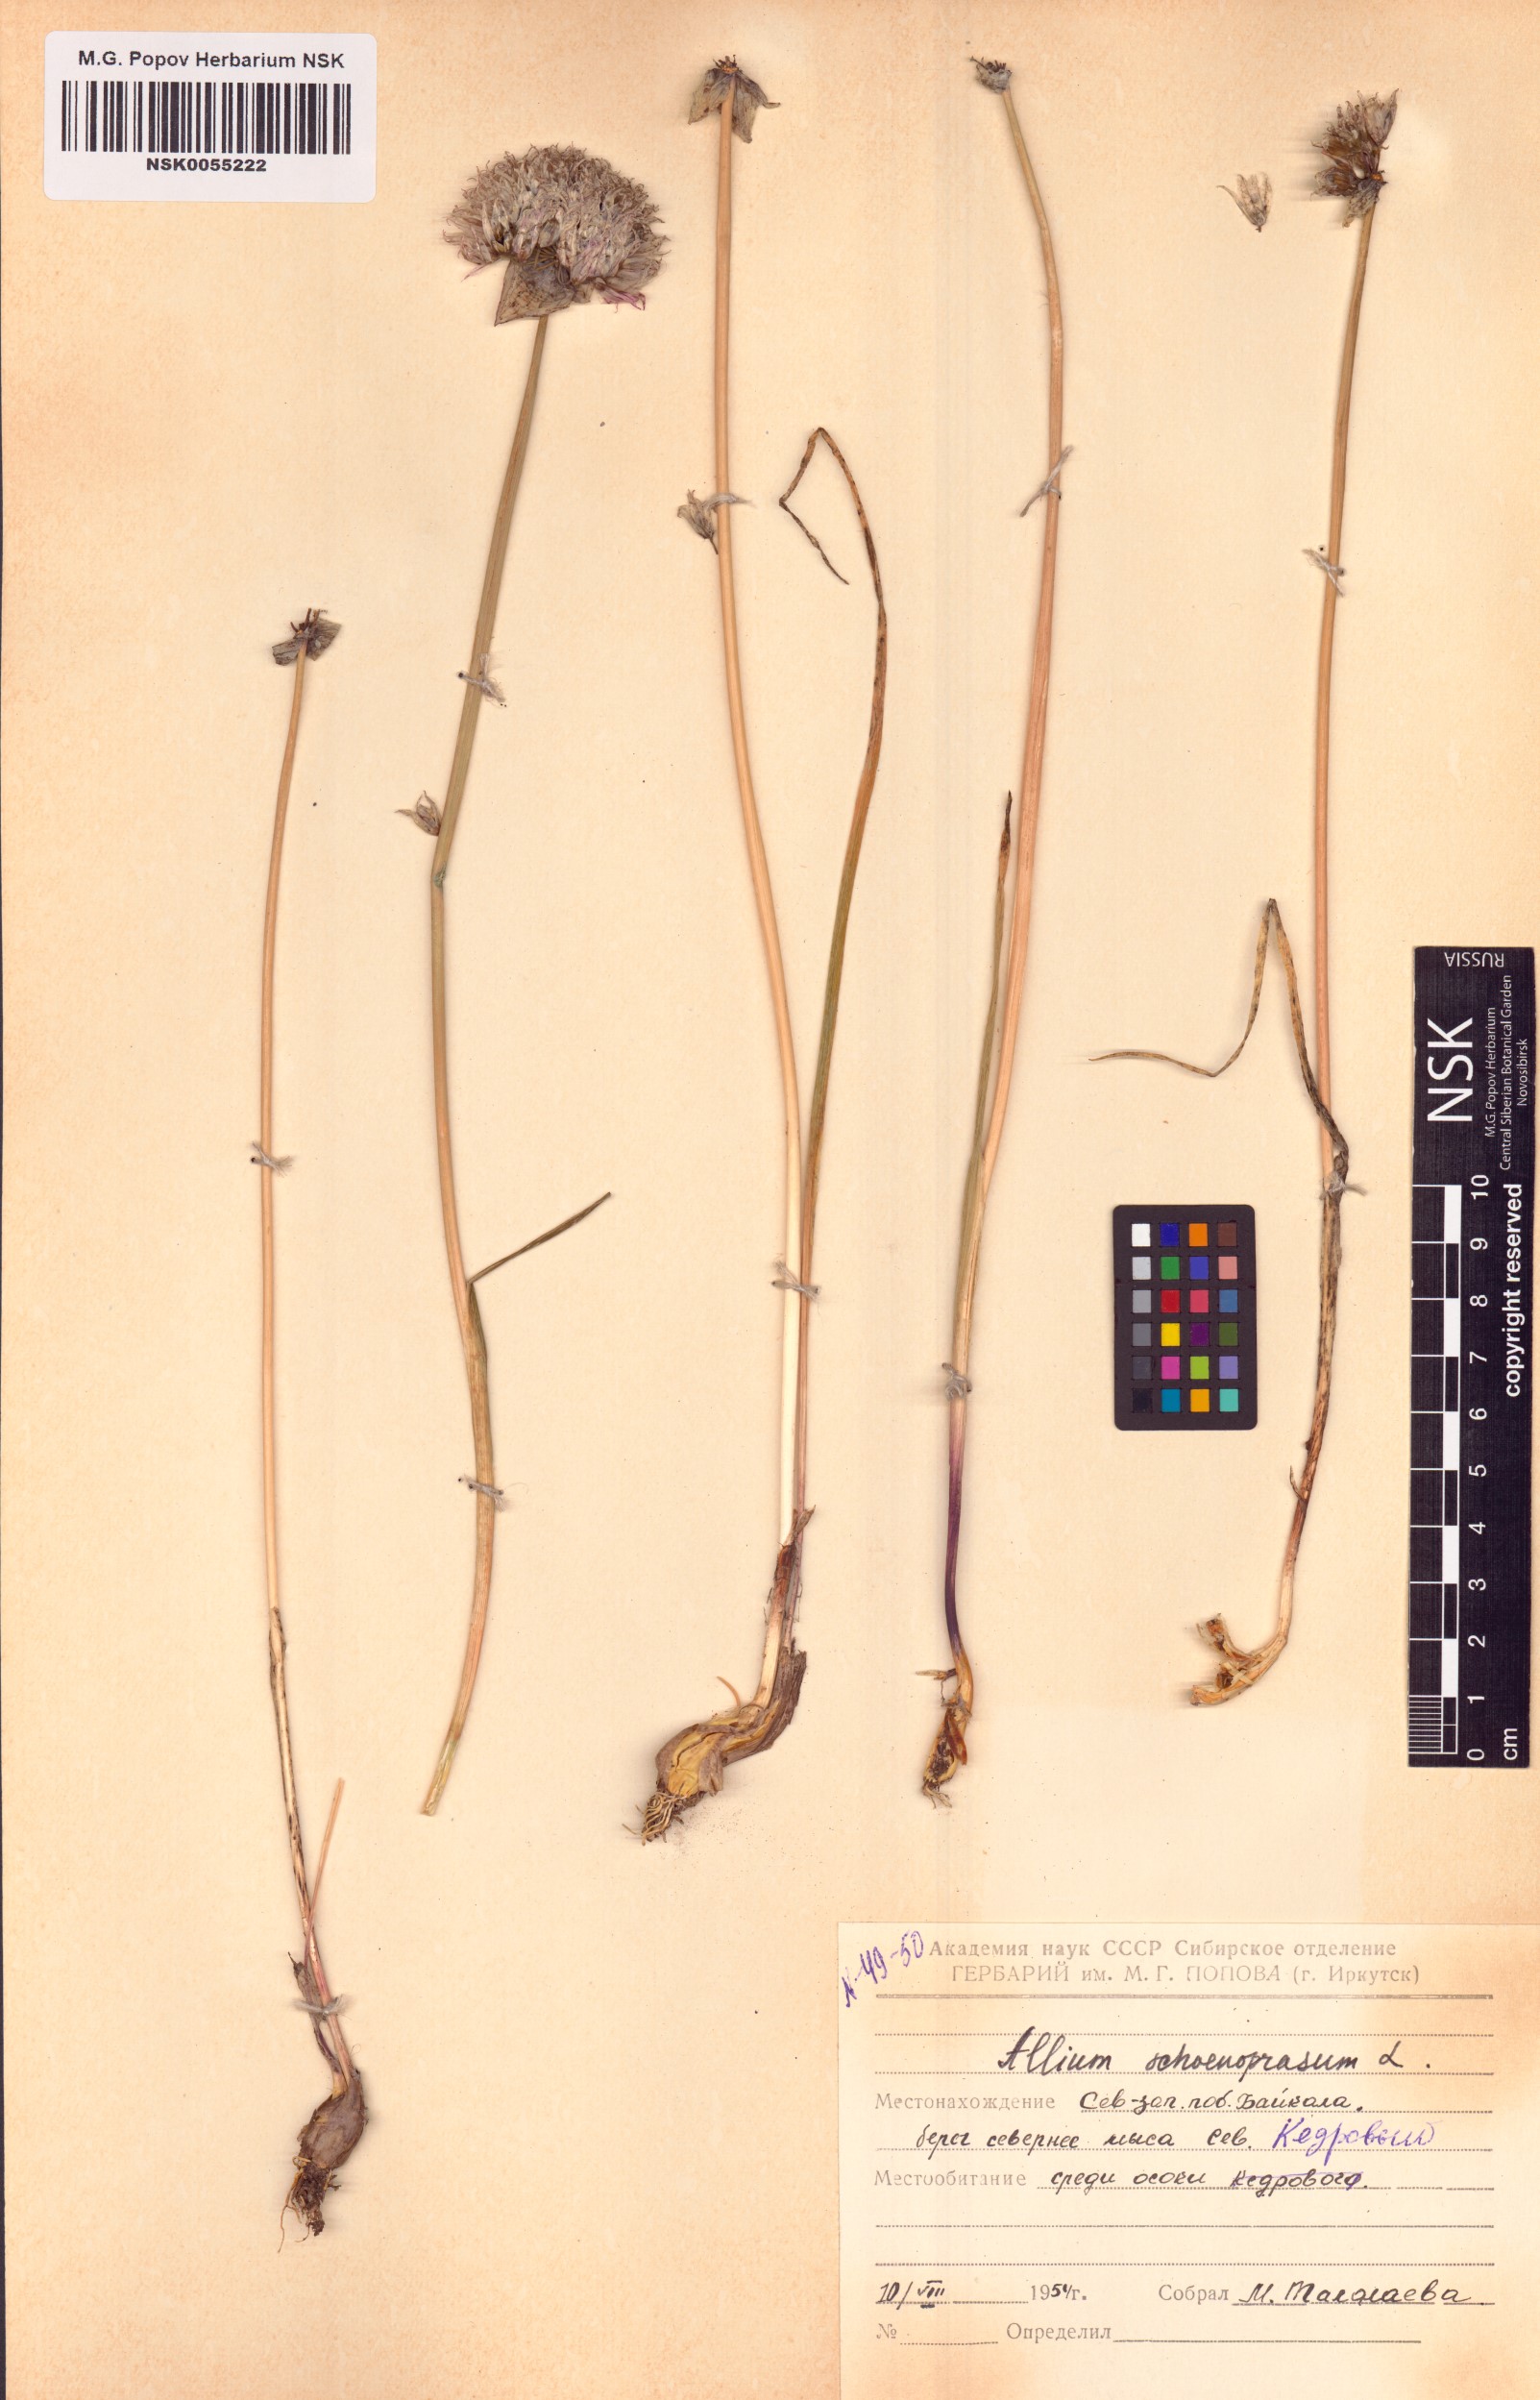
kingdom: Plantae
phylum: Tracheophyta
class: Liliopsida
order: Asparagales
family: Amaryllidaceae
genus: Allium
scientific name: Allium schoenoprasum
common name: Chives
